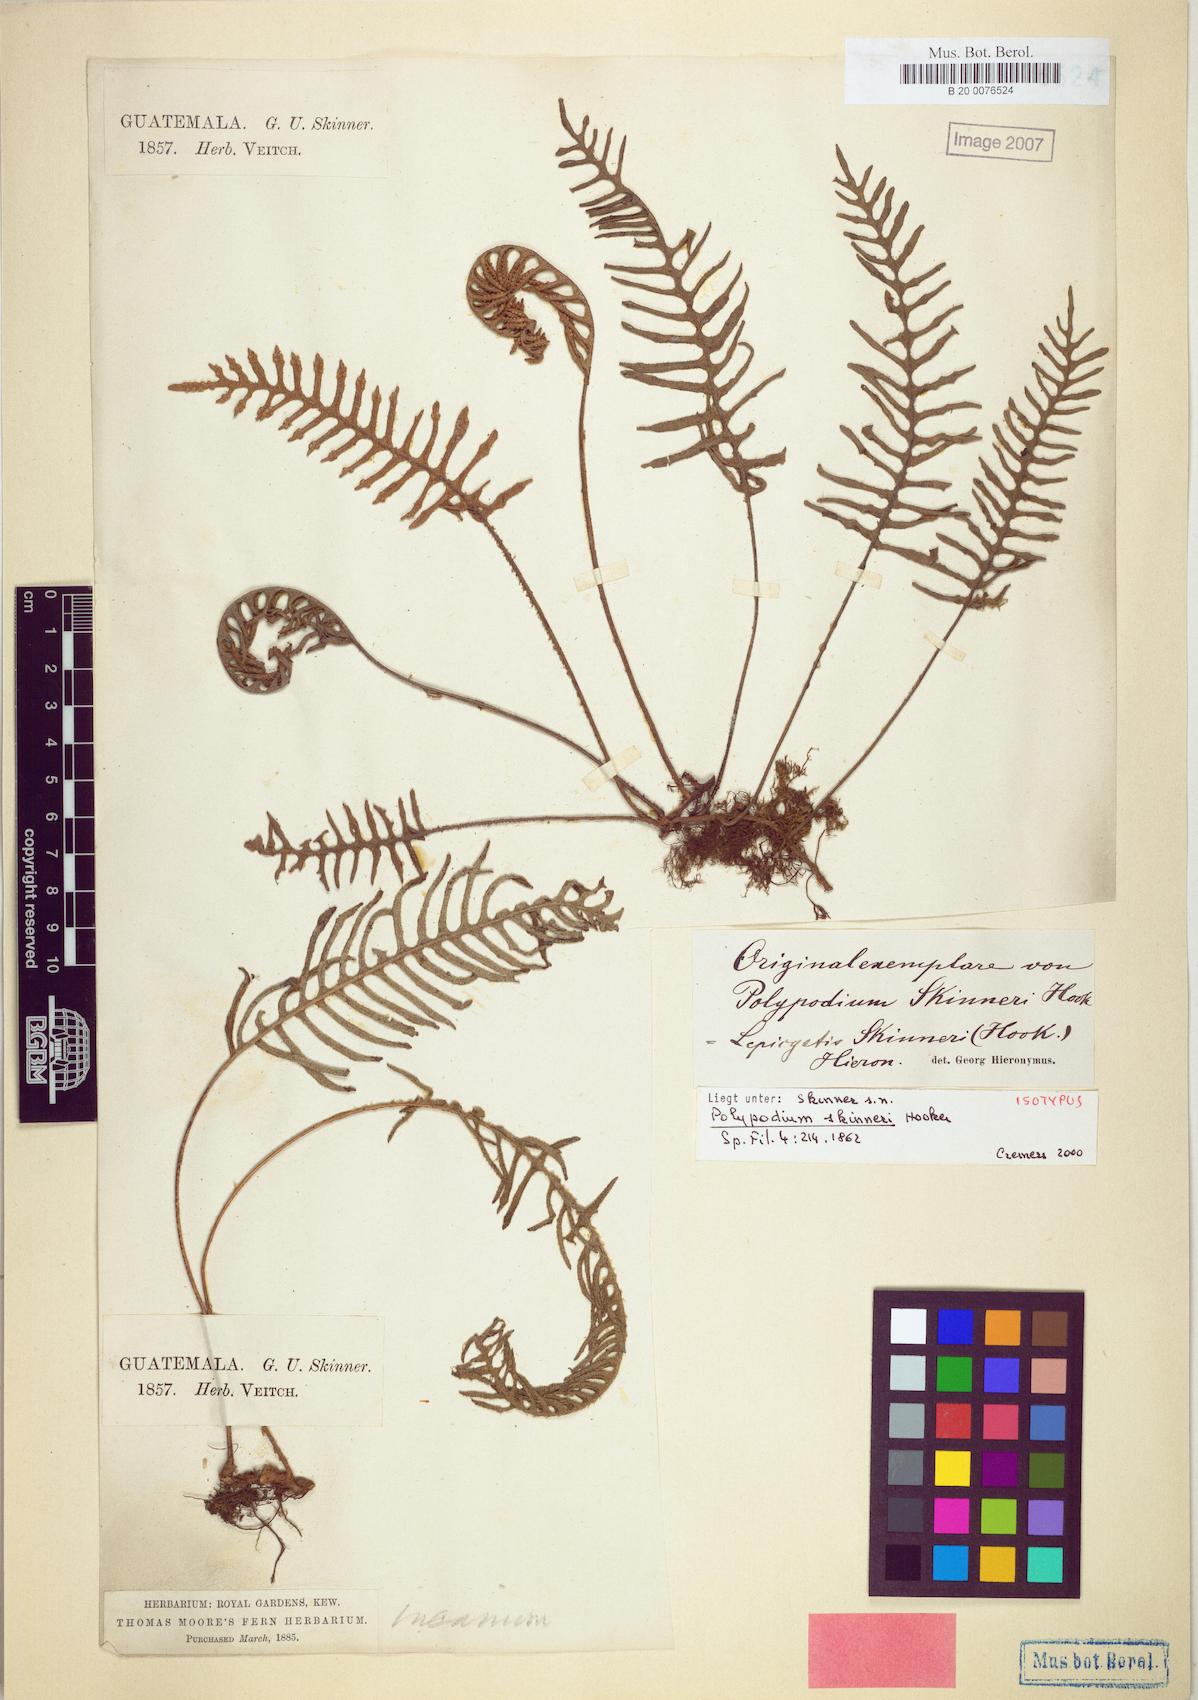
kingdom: Plantae
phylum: Tracheophyta
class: Polypodiopsida
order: Polypodiales
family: Polypodiaceae
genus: Pleopeltis
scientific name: Pleopeltis cryptocarpa
